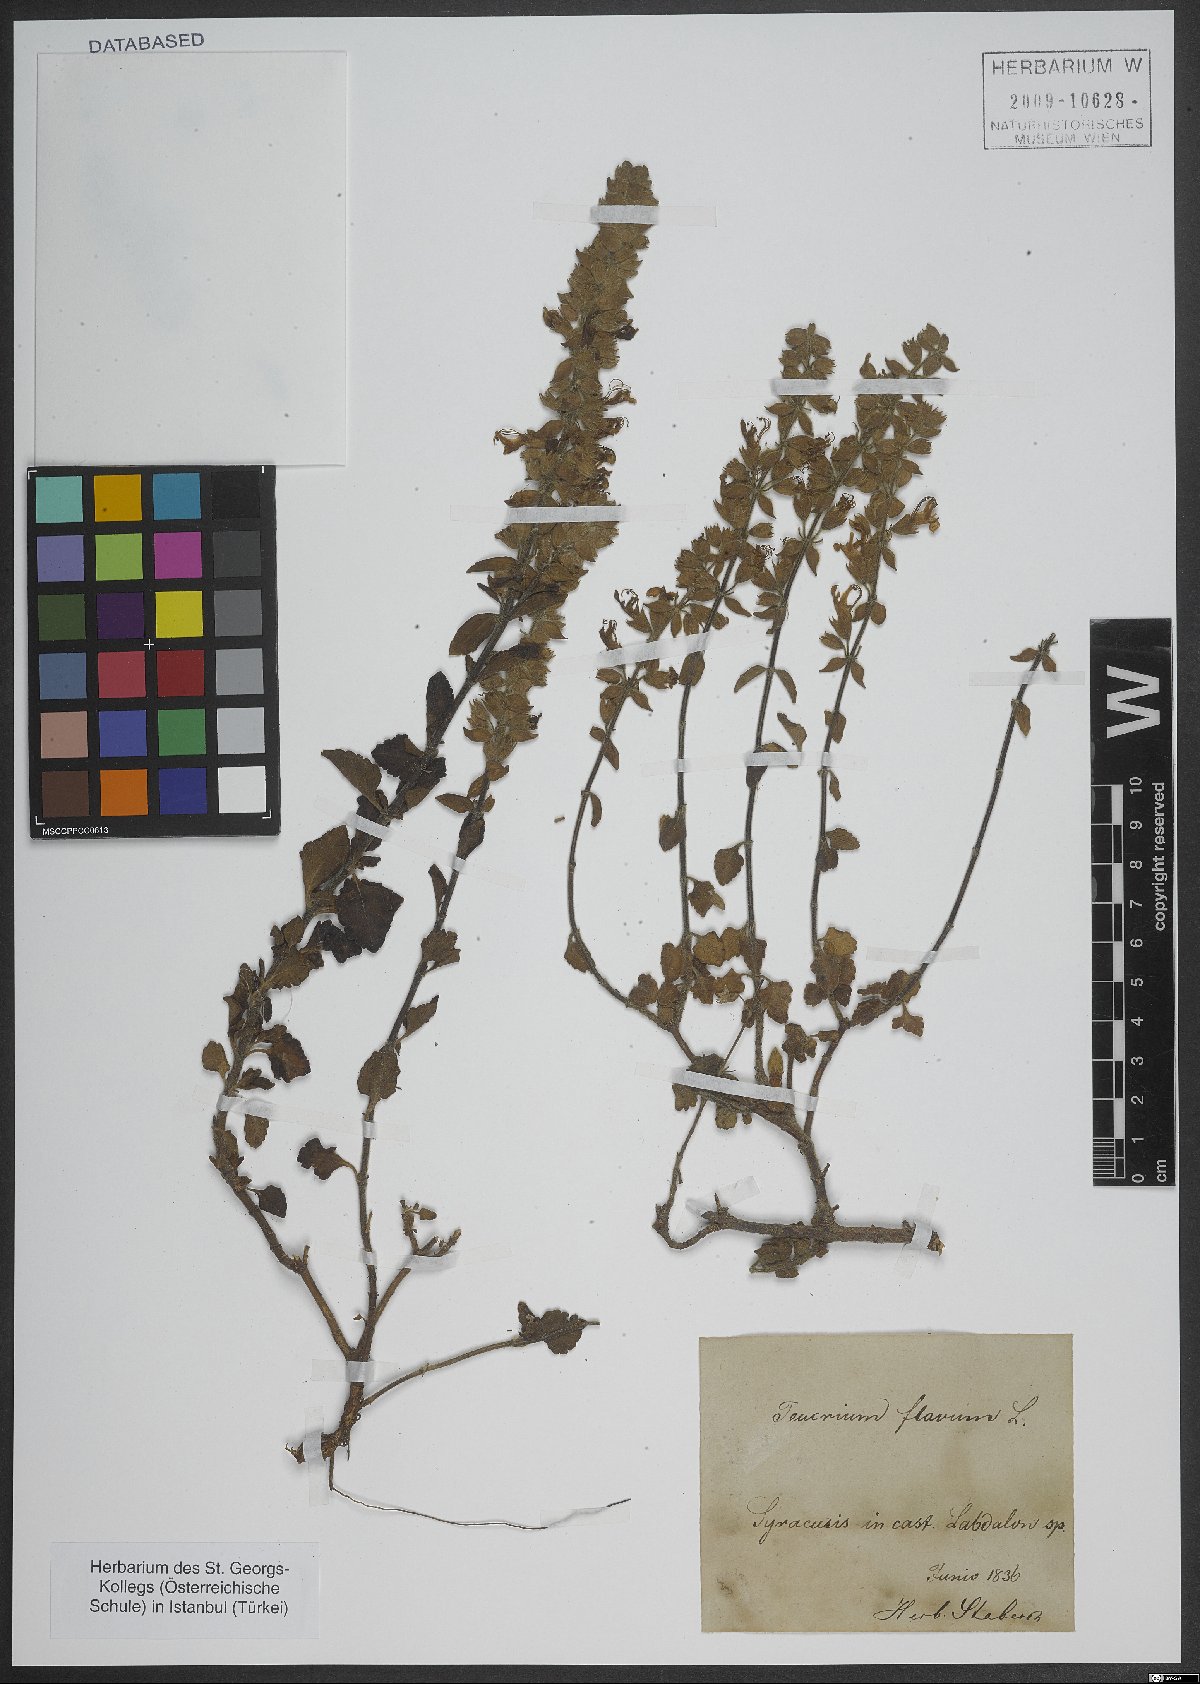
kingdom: Plantae
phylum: Tracheophyta
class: Magnoliopsida
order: Lamiales
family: Lamiaceae
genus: Teucrium
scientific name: Teucrium flavum
